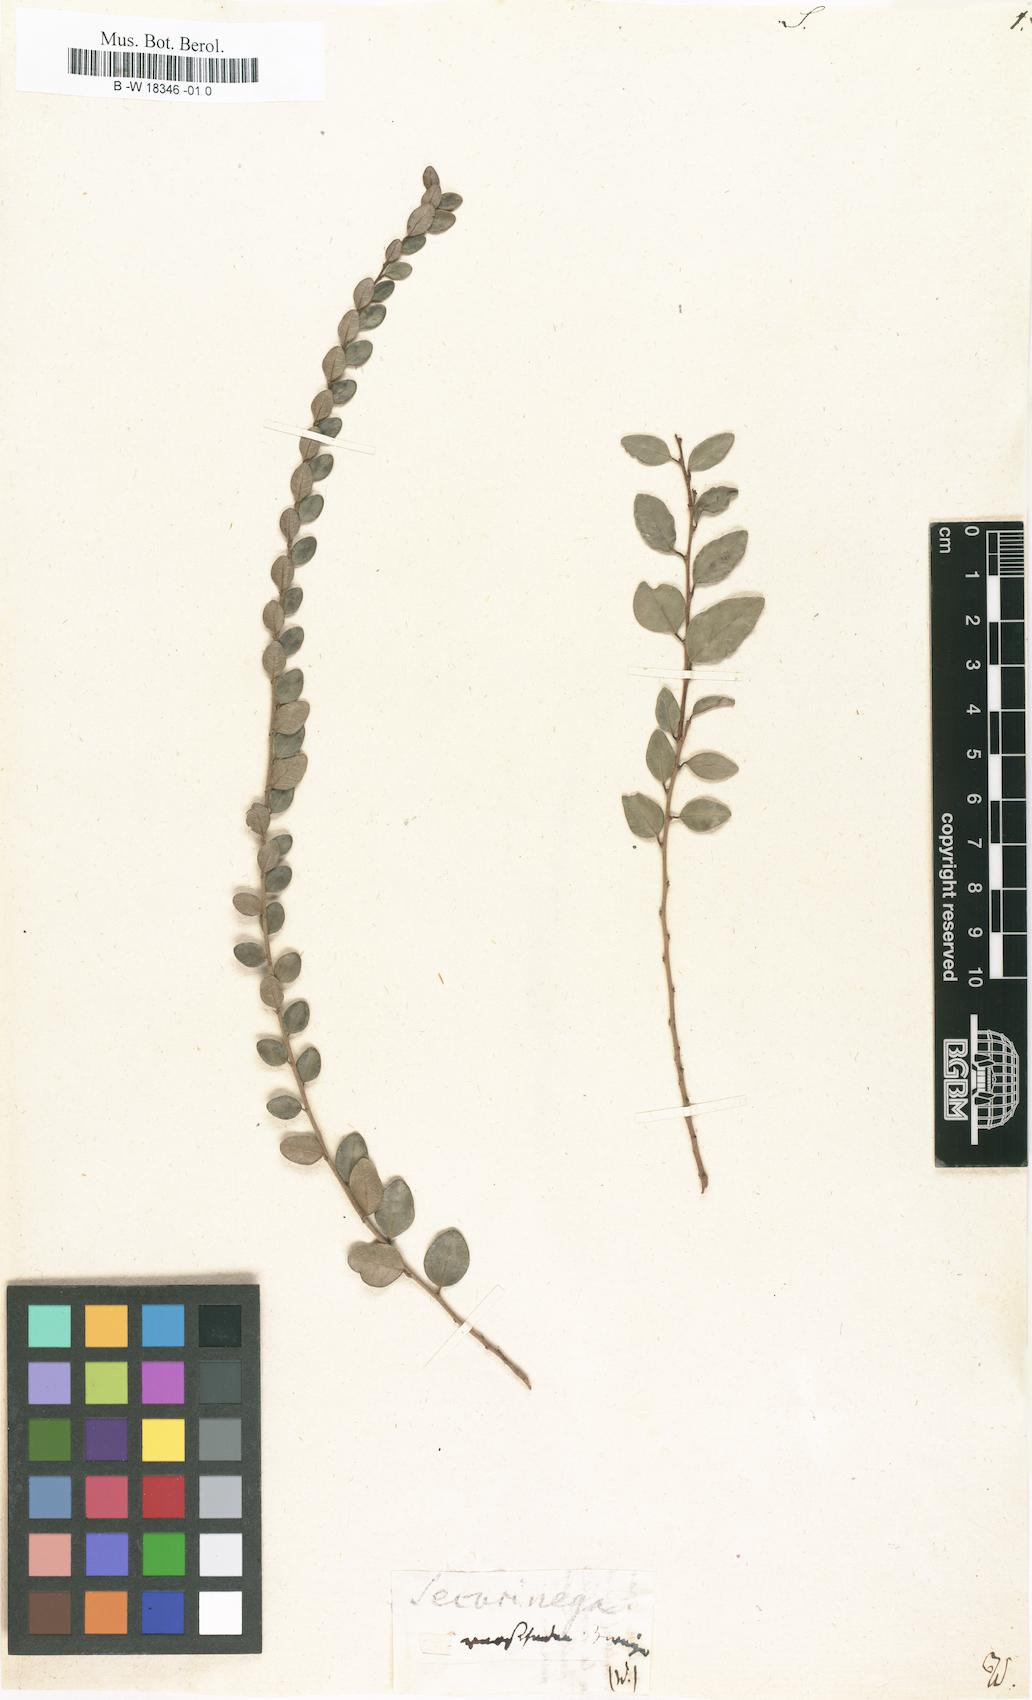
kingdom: Plantae
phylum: Tracheophyta
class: Magnoliopsida
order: Malpighiales
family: Phyllanthaceae
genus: Securinega
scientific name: Securinega
